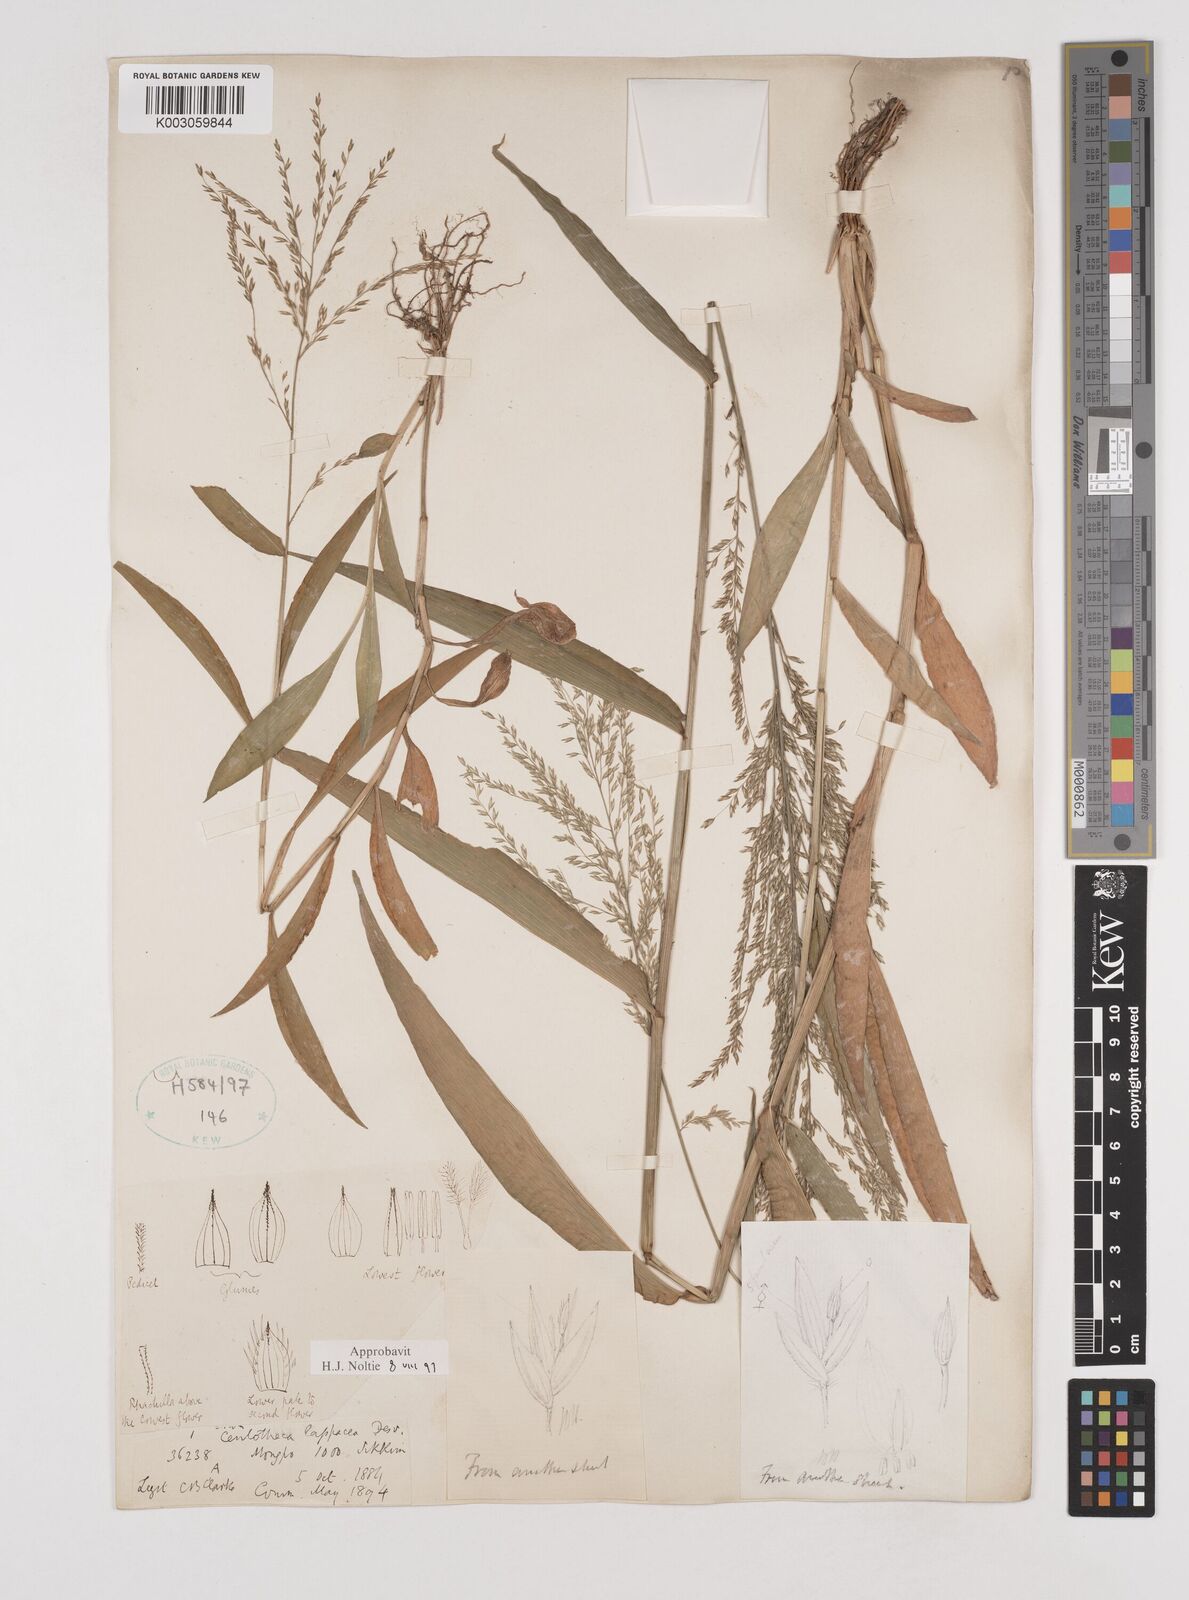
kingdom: Plantae
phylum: Tracheophyta
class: Liliopsida
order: Poales
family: Poaceae
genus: Centotheca
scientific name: Centotheca lappacea
